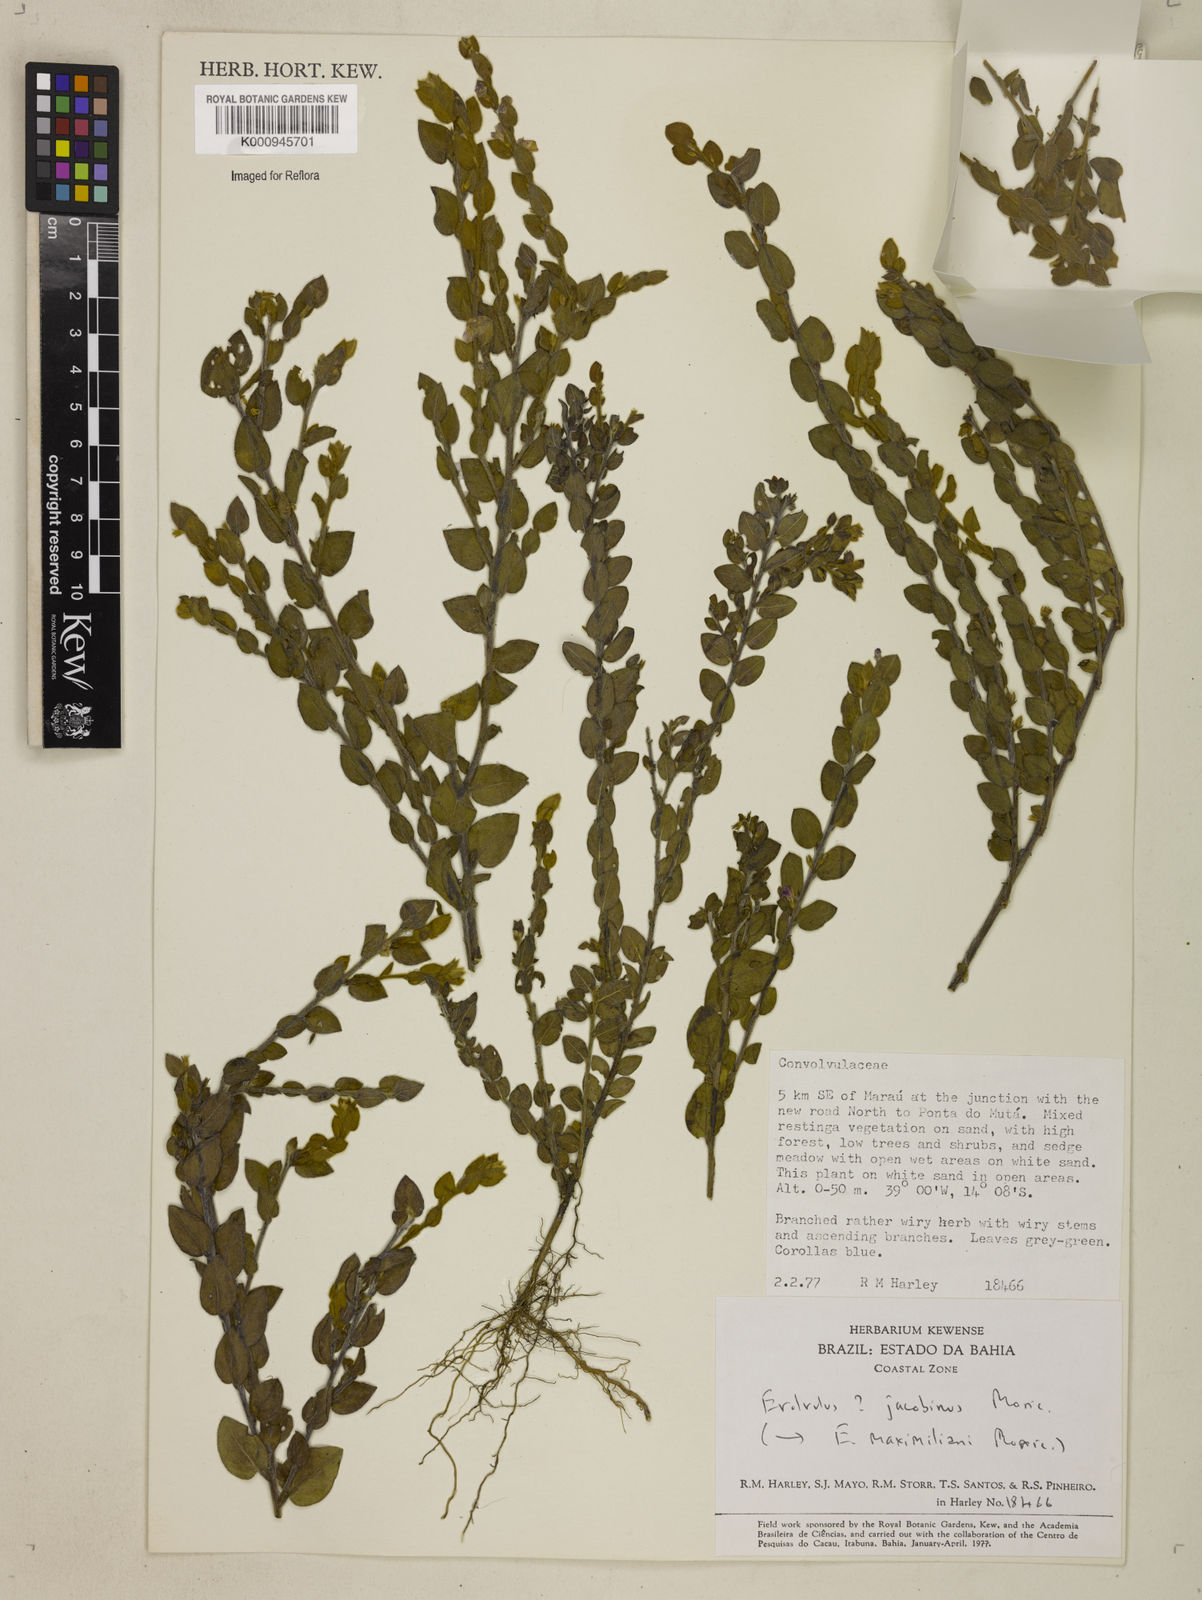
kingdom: Plantae
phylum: Tracheophyta
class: Magnoliopsida
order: Solanales
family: Convolvulaceae
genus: Evolvulus
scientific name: Evolvulus jacobinus
